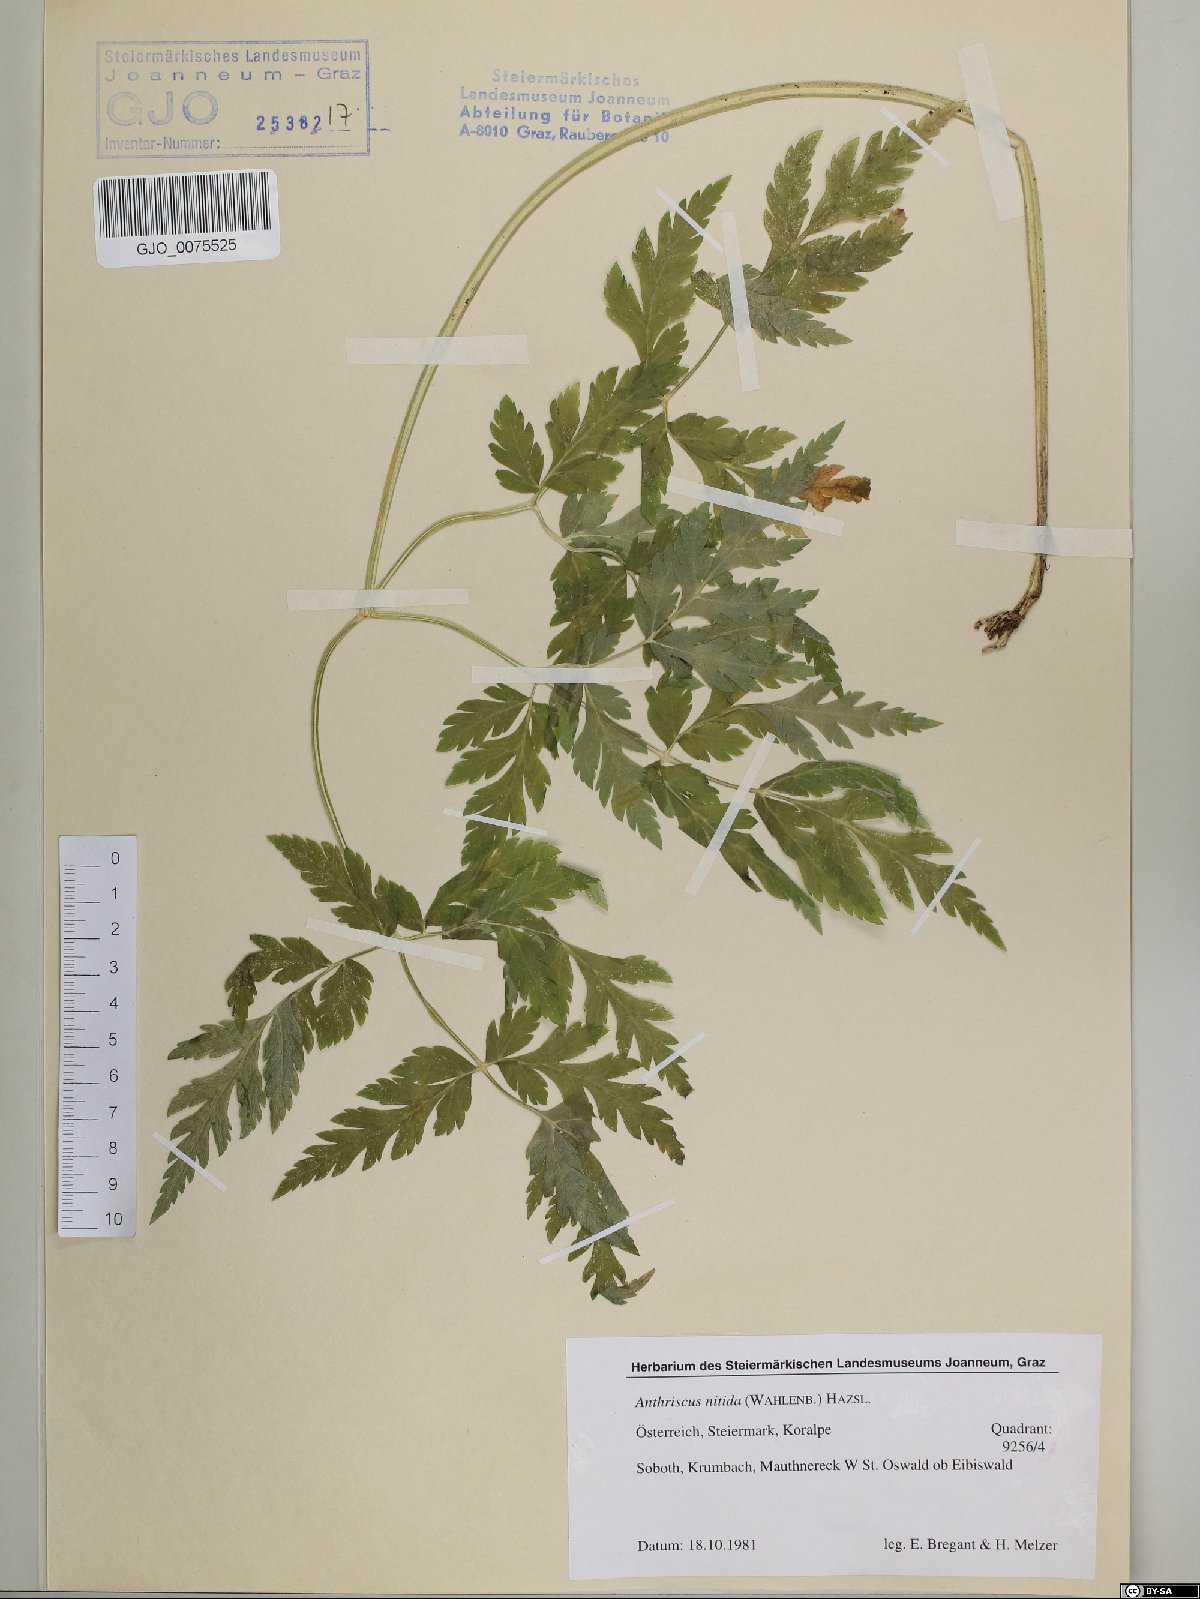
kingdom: Plantae
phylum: Tracheophyta
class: Magnoliopsida
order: Apiales
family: Apiaceae
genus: Anthriscus
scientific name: Anthriscus nitida
